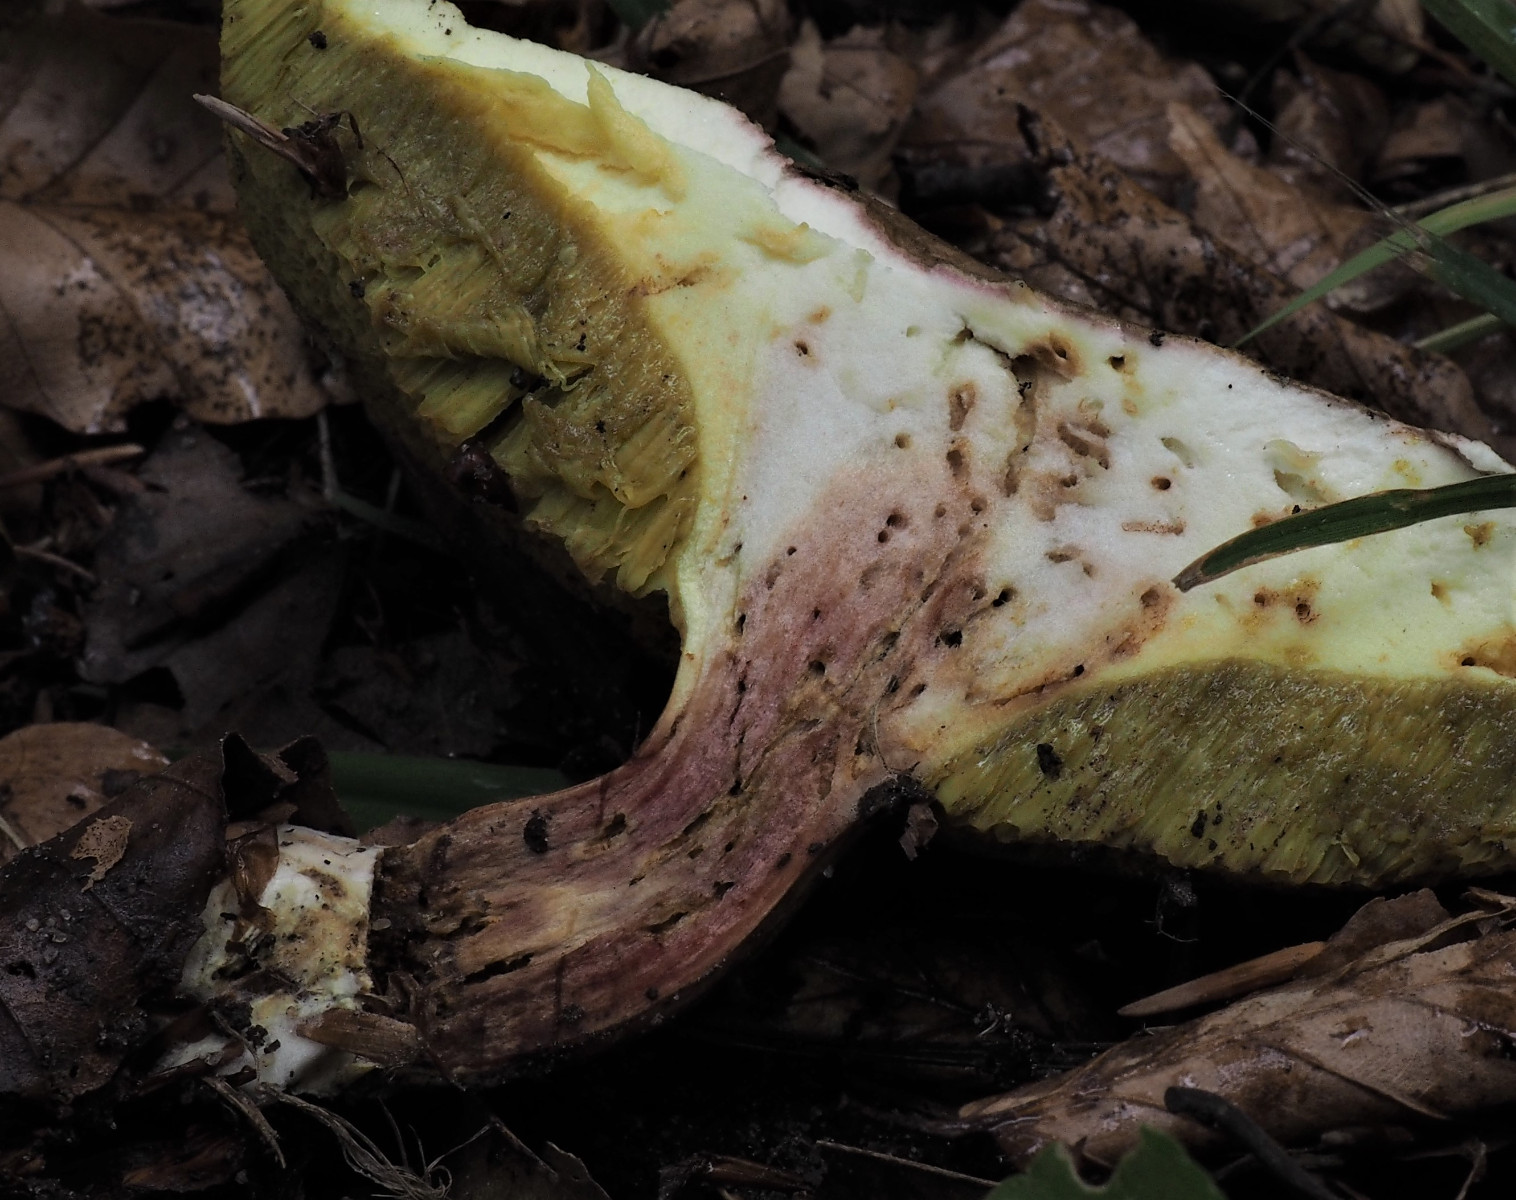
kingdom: Fungi
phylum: Basidiomycota
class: Agaricomycetes
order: Boletales
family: Boletaceae
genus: Xerocomellus
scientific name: Xerocomellus chrysenteron
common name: rødsprukken rørhat
